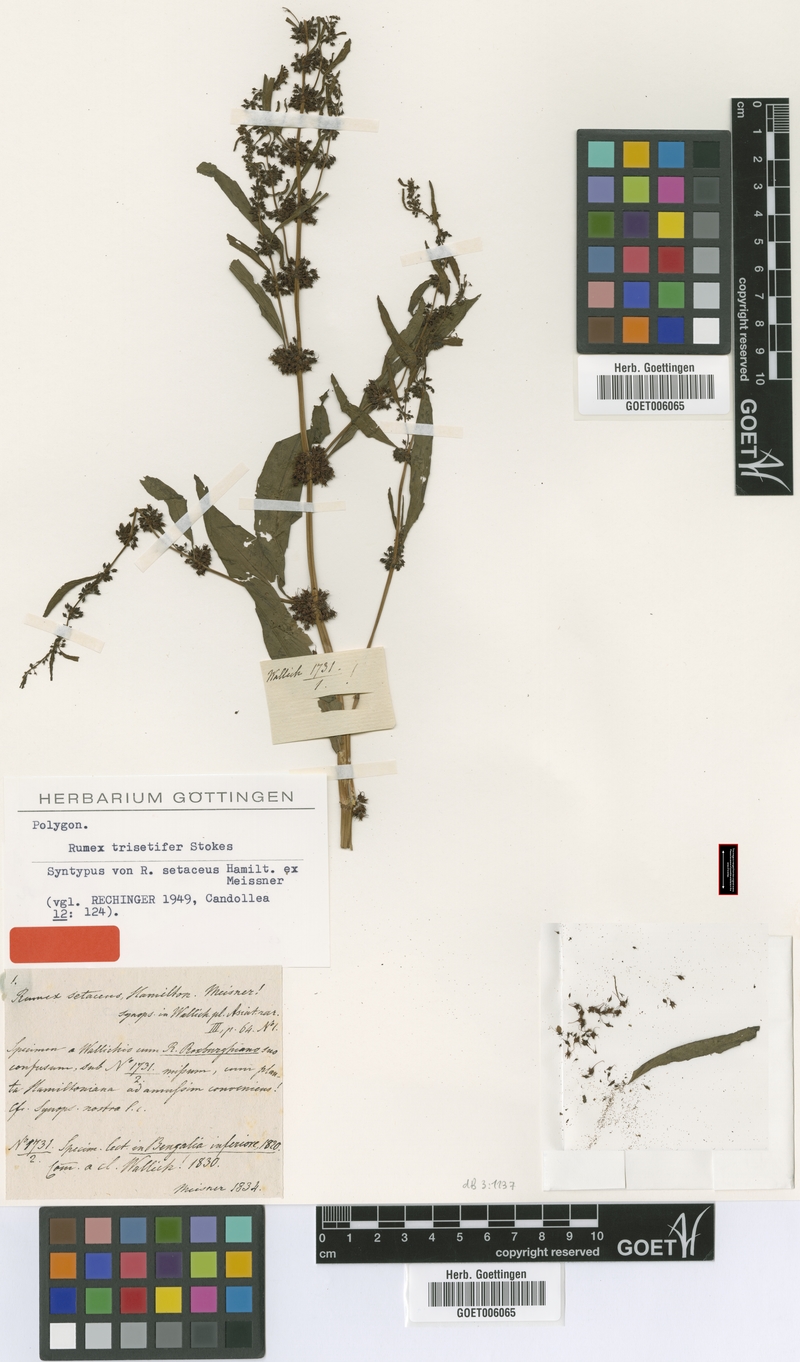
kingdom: Plantae
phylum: Tracheophyta
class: Magnoliopsida
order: Caryophyllales
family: Polygonaceae
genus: Rumex
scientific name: Rumex trisetifer
